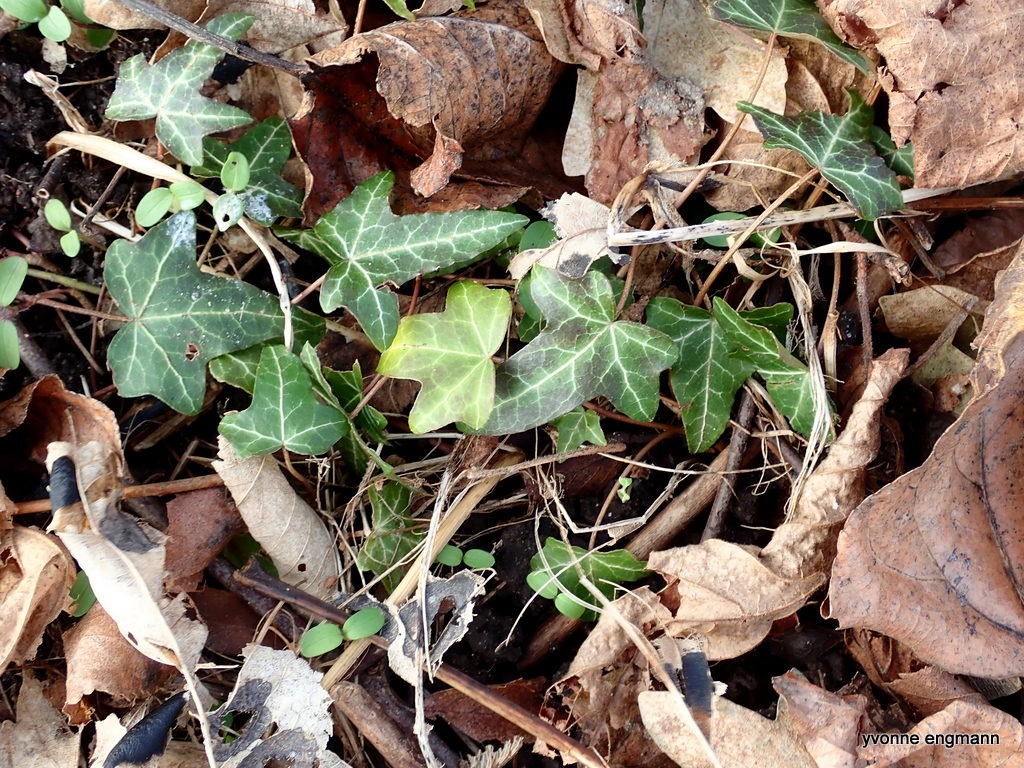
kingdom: Plantae
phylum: Tracheophyta
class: Magnoliopsida
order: Apiales
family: Araliaceae
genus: Hedera
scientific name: Hedera helix
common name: Vedbend
